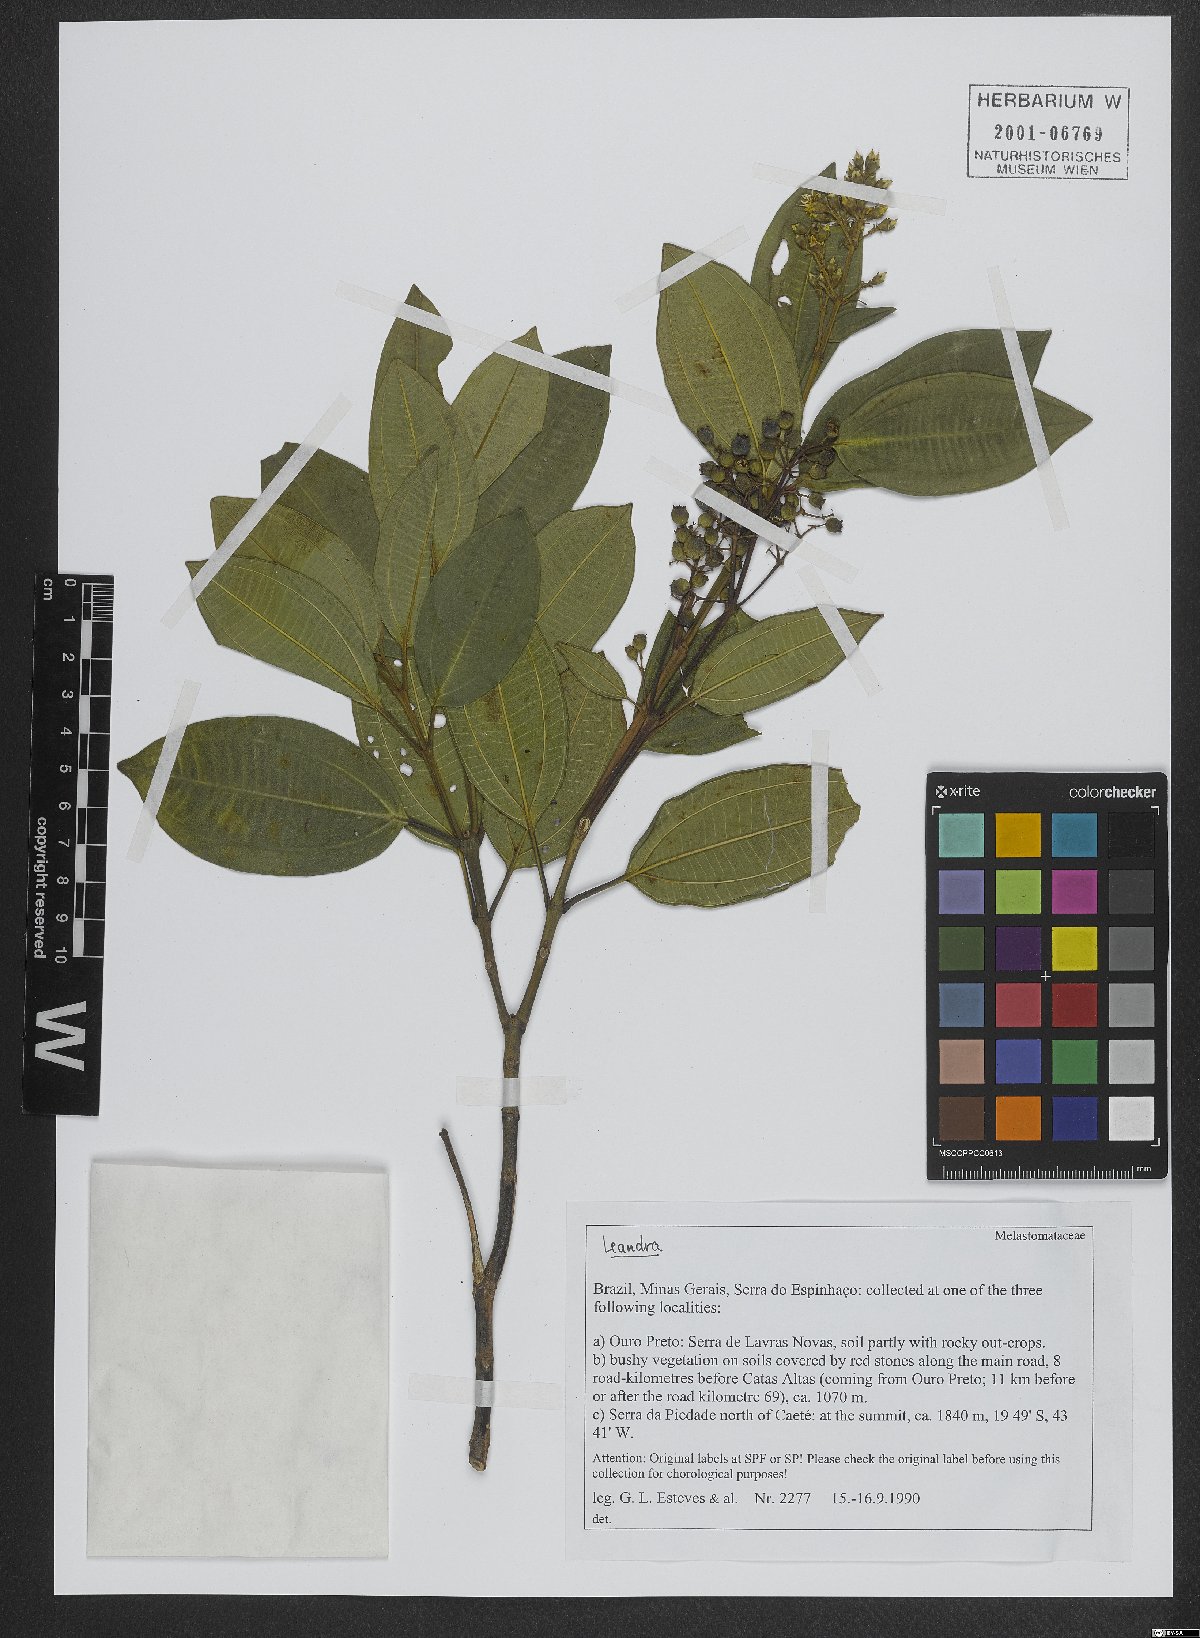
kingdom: Plantae
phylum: Tracheophyta
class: Magnoliopsida
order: Myrtales
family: Melastomataceae
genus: Miconia
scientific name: Miconia
